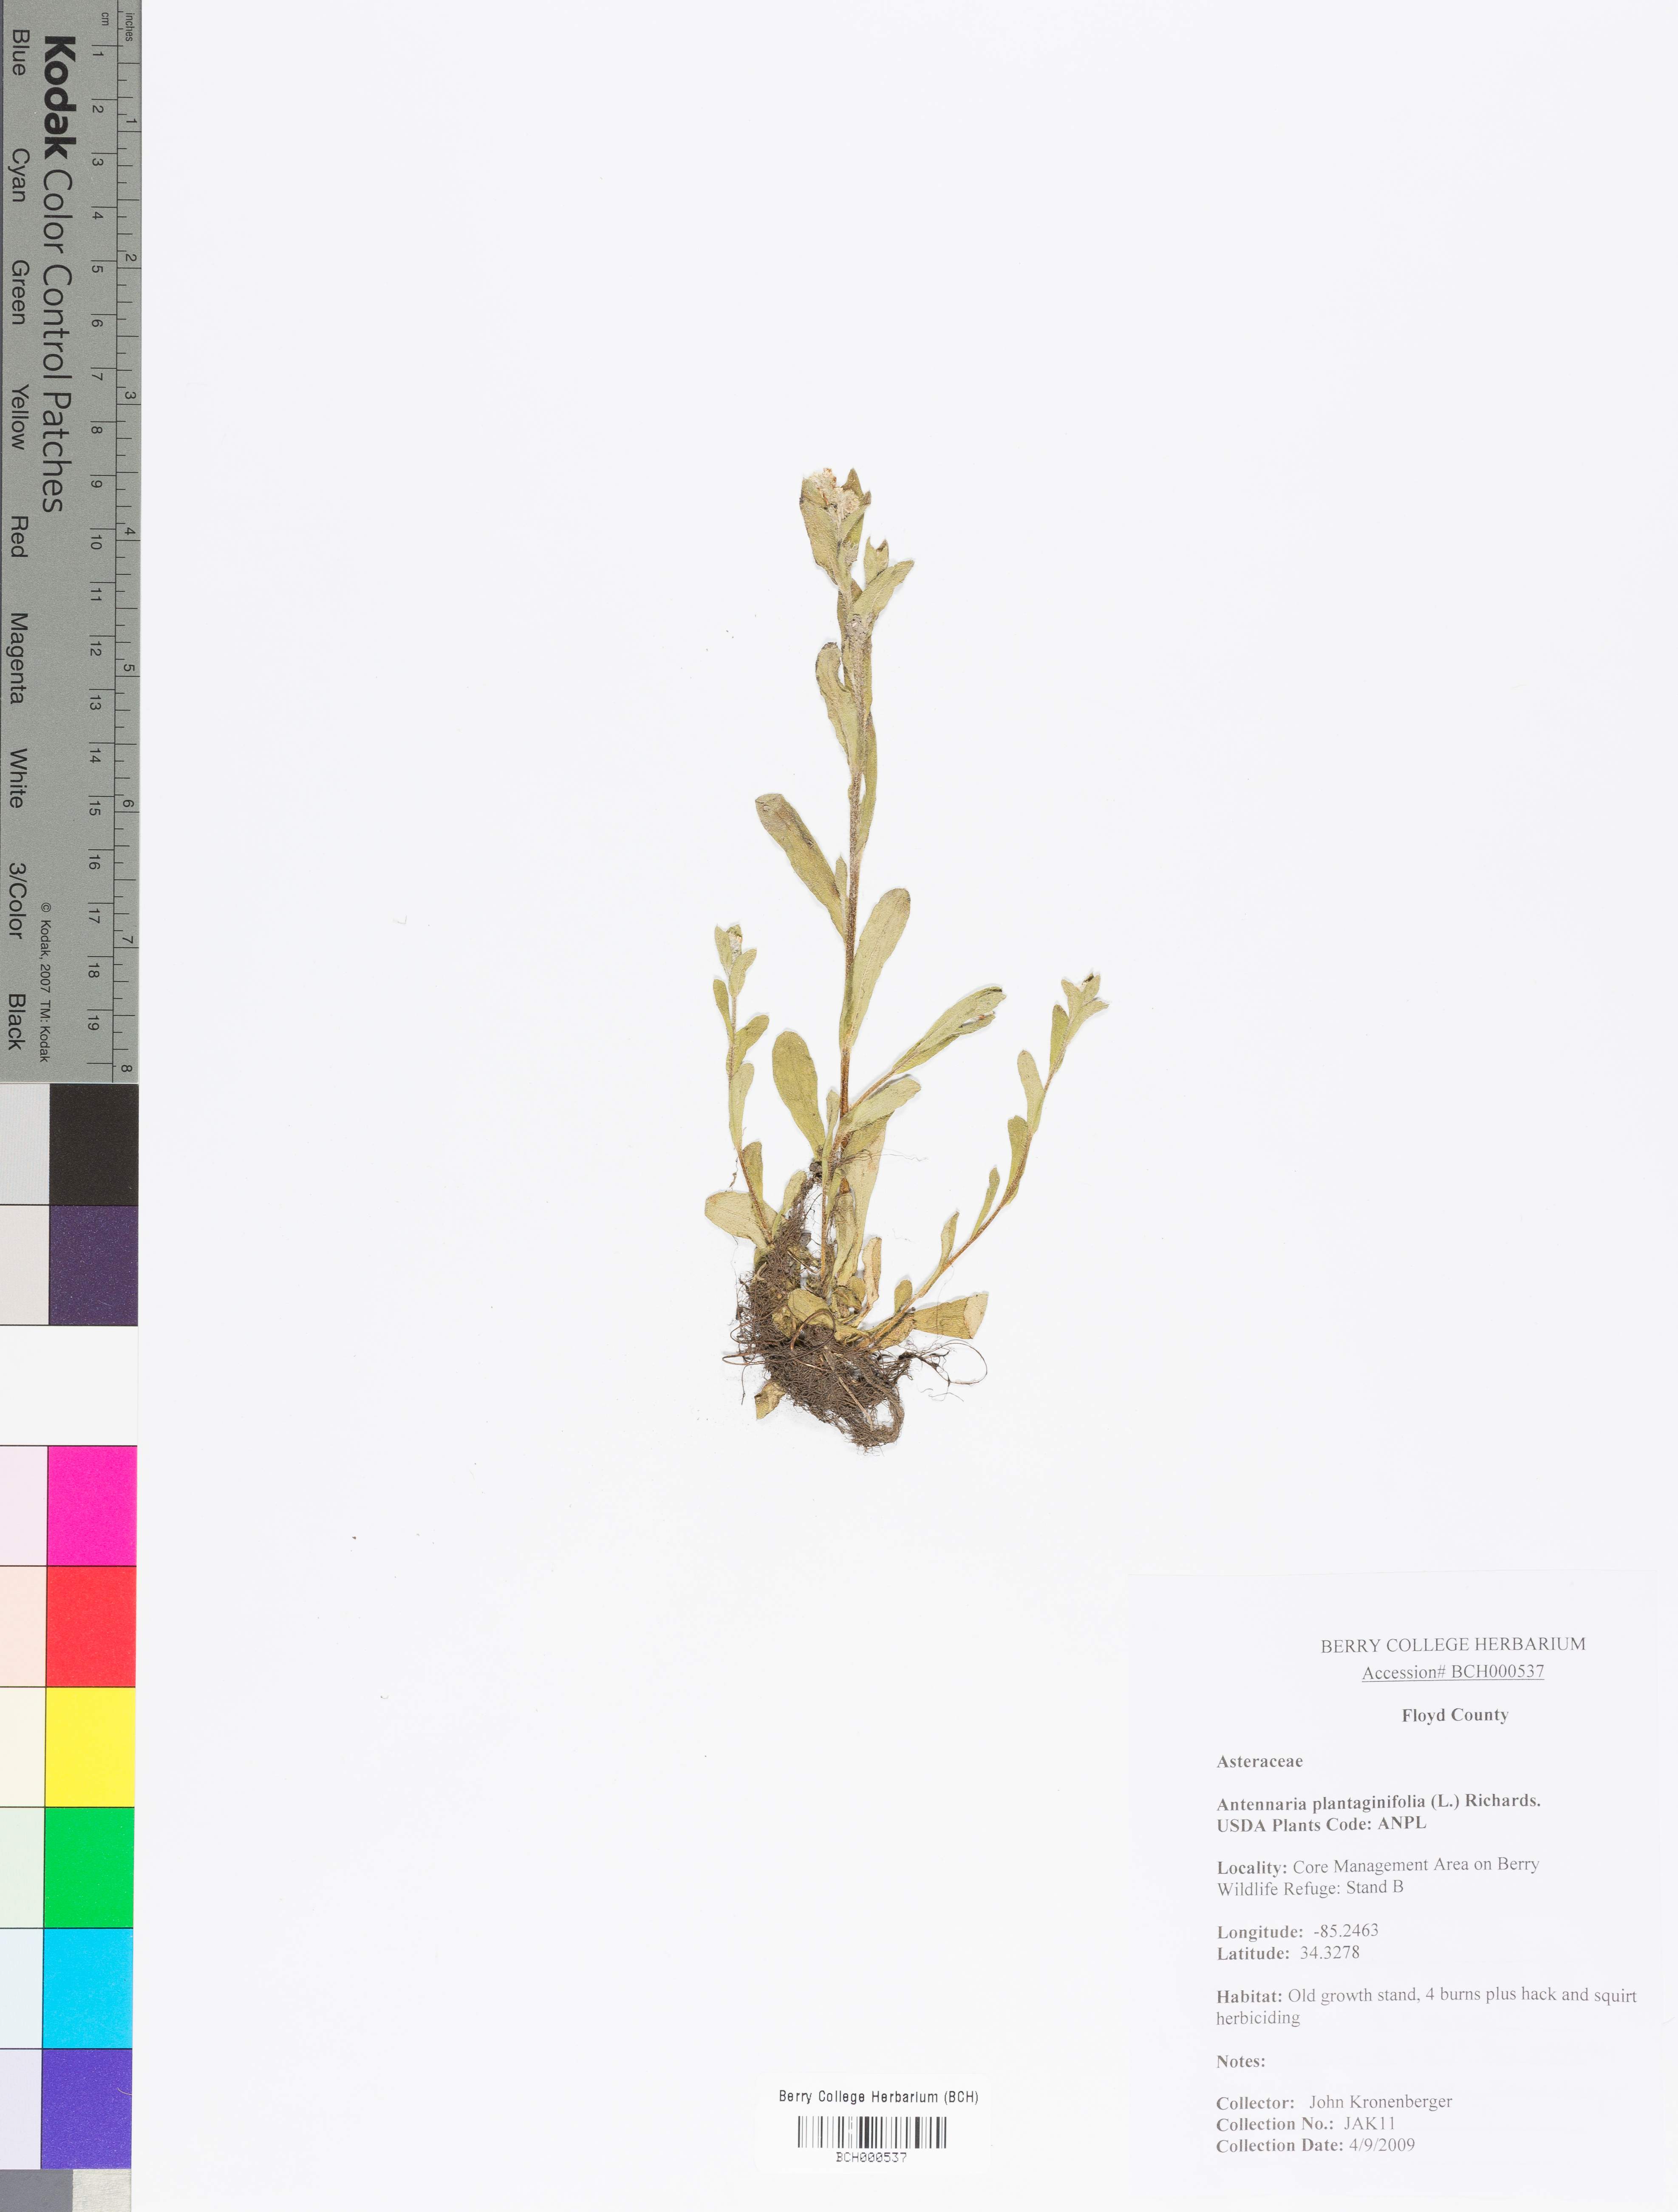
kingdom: Plantae
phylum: Tracheophyta
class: Magnoliopsida
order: Asterales
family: Asteraceae
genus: Antennaria
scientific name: Antennaria plantaginifolia
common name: Plantain-leaved pussytoes
